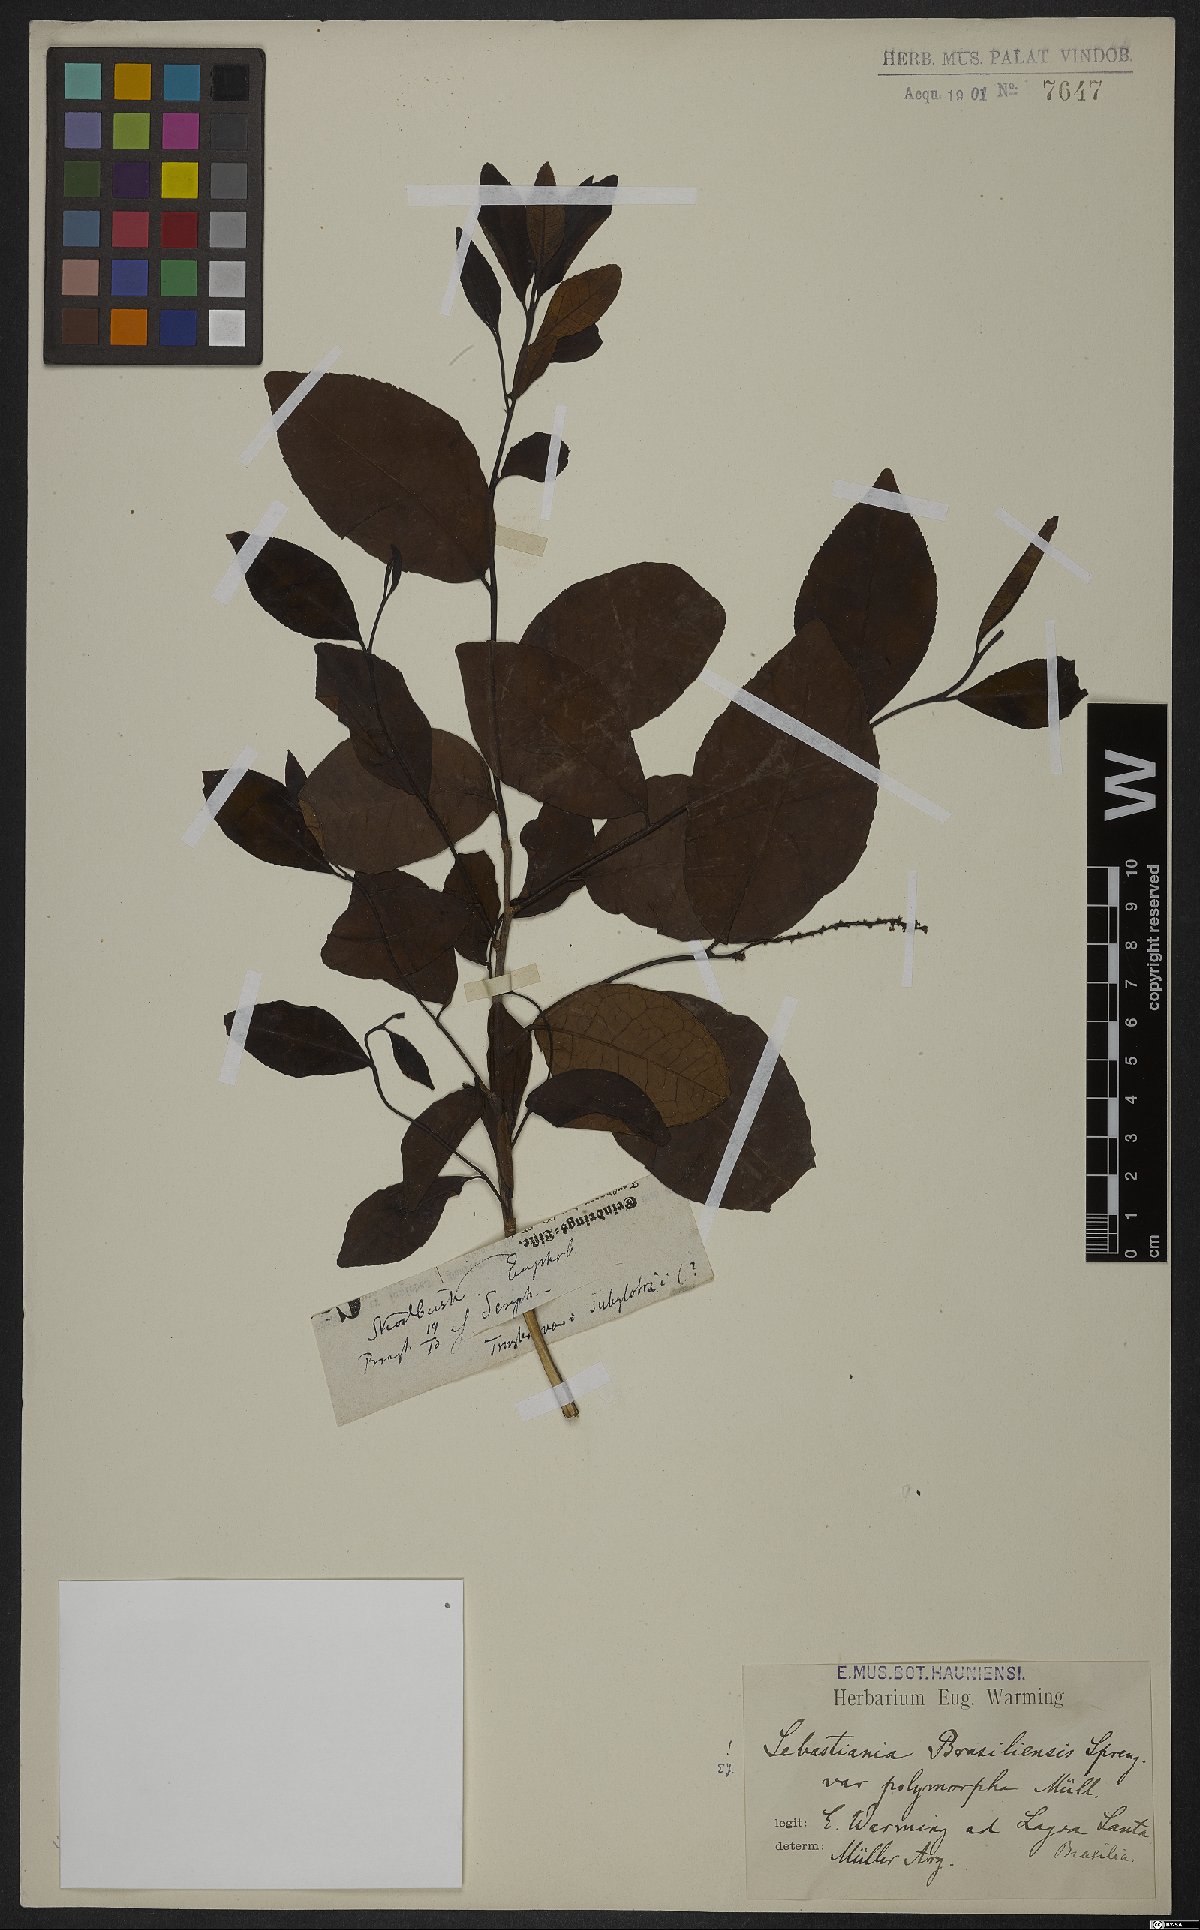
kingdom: Plantae
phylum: Tracheophyta
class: Magnoliopsida
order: Malpighiales
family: Euphorbiaceae
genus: Sebastiania
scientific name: Sebastiania ramosissima
